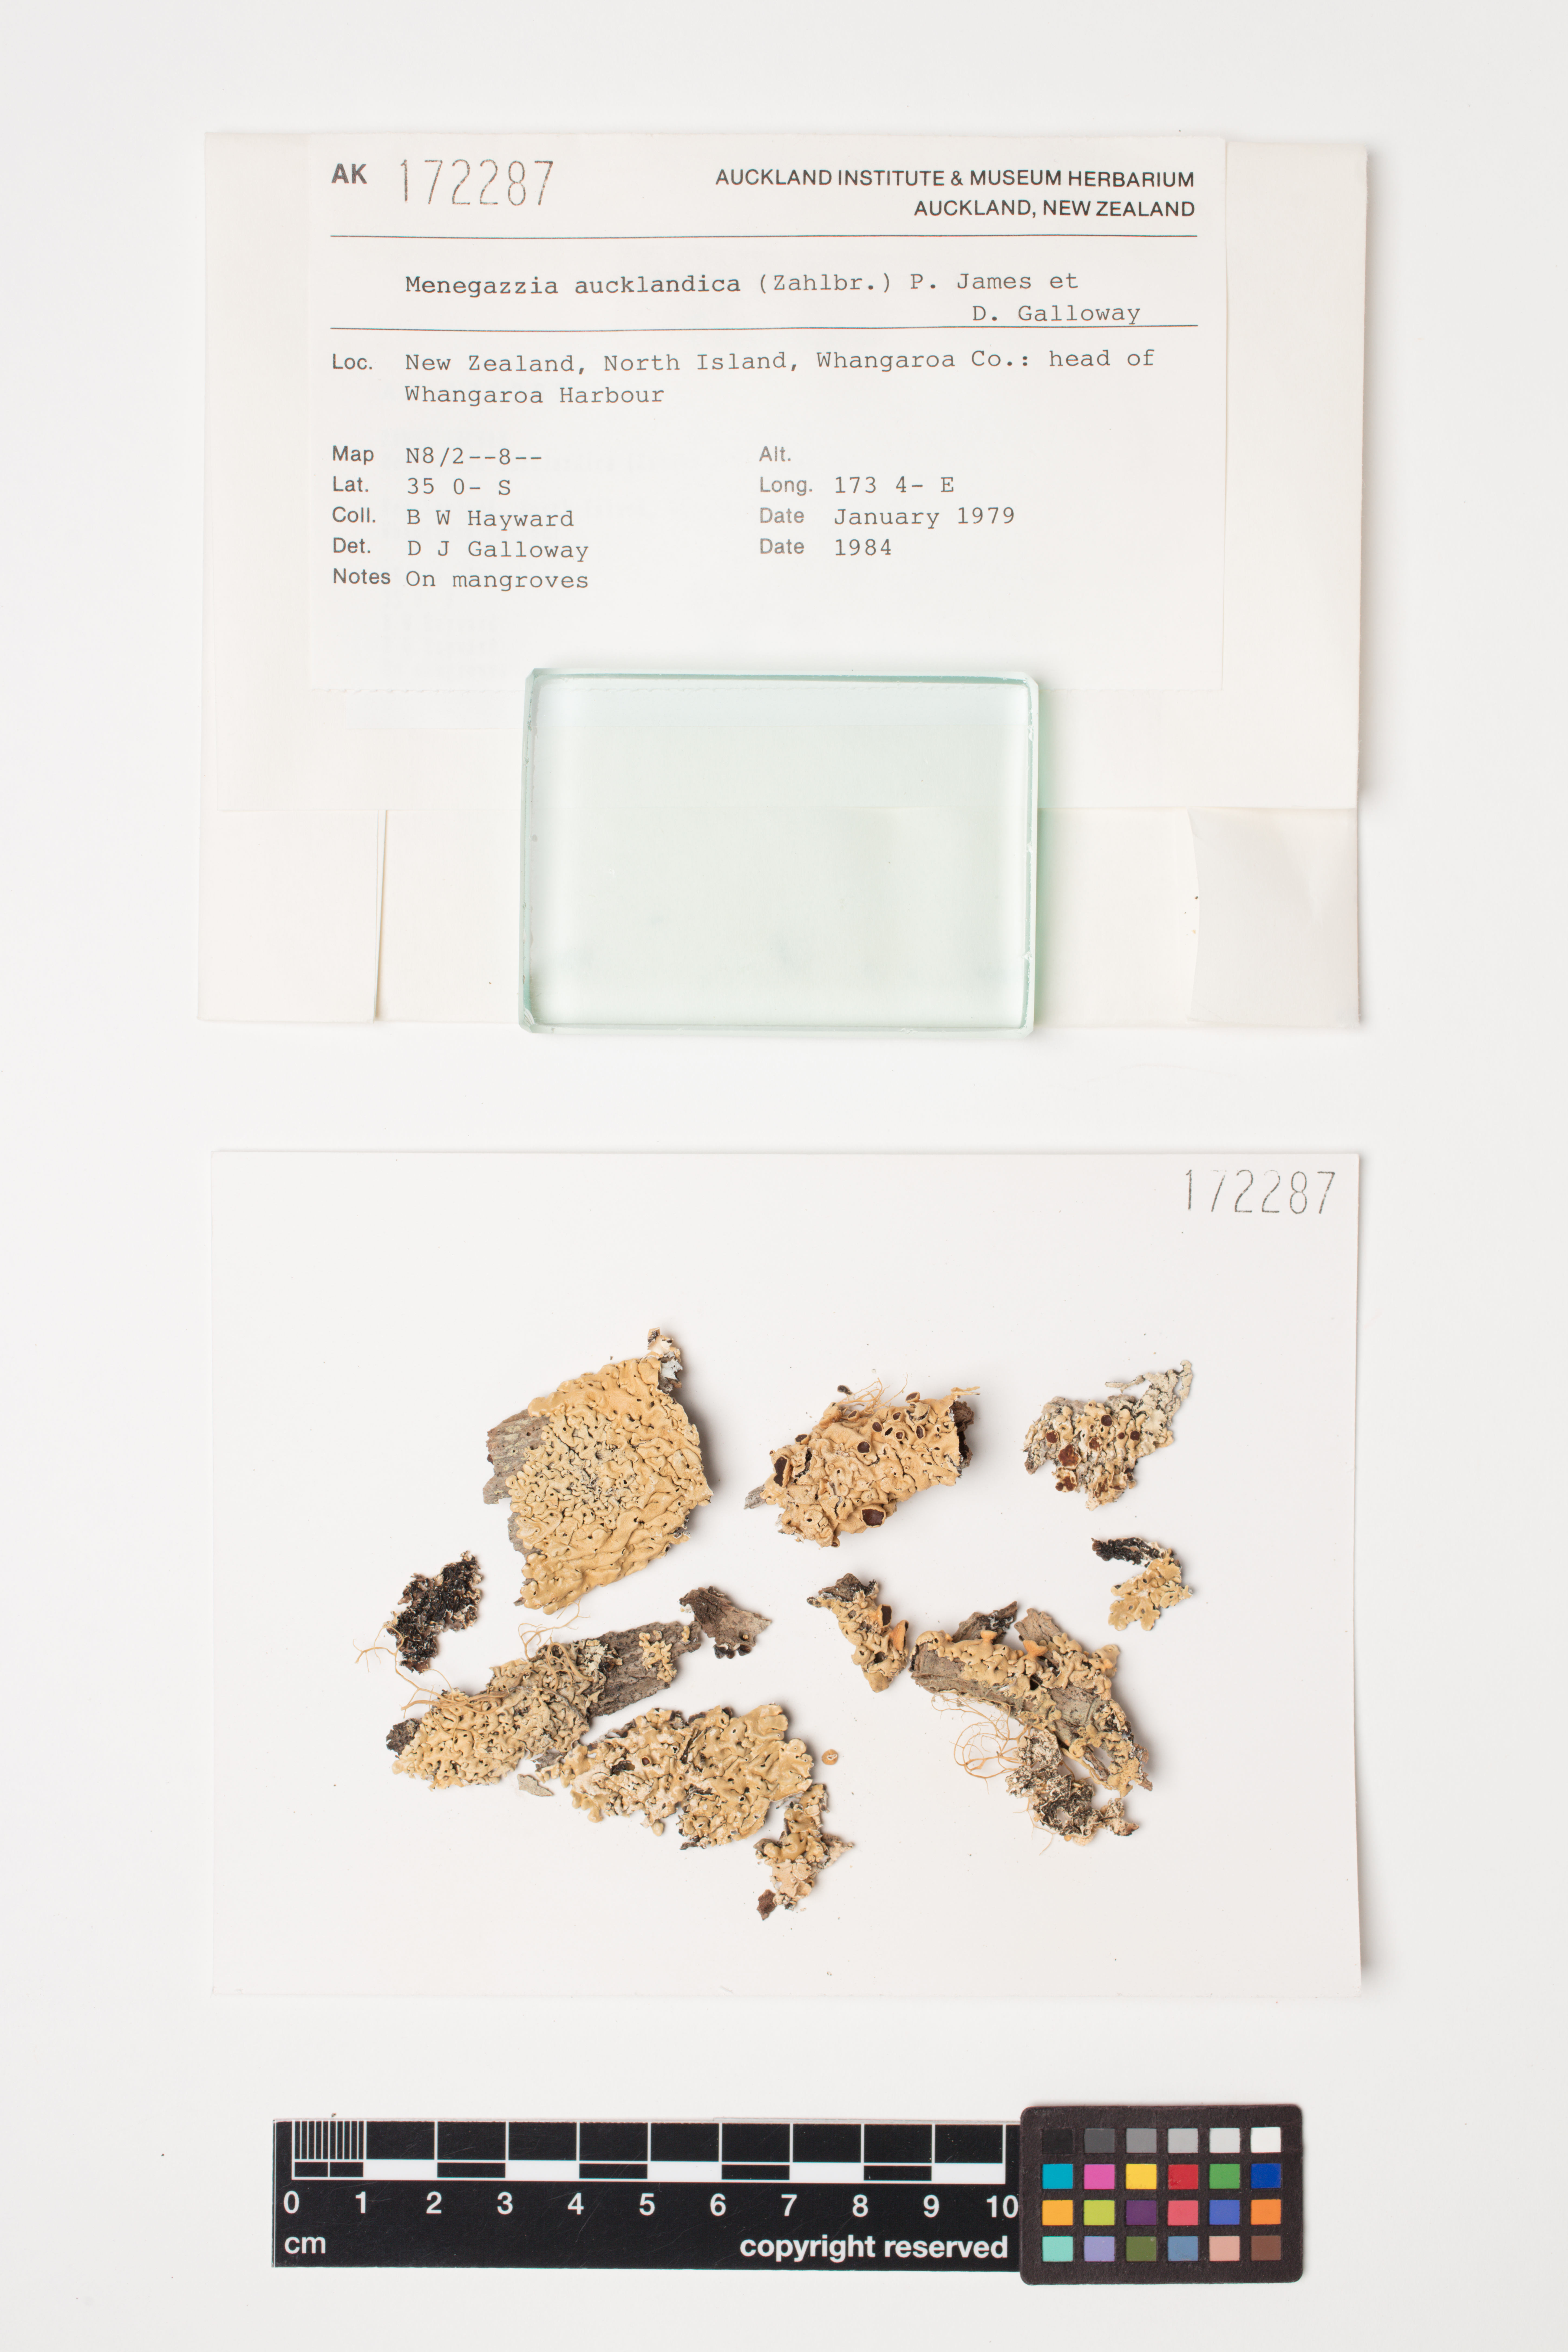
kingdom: Fungi
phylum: Ascomycota
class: Lecanoromycetes
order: Lecanorales
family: Parmeliaceae
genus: Menegazzia
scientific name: Menegazzia aucklandica
